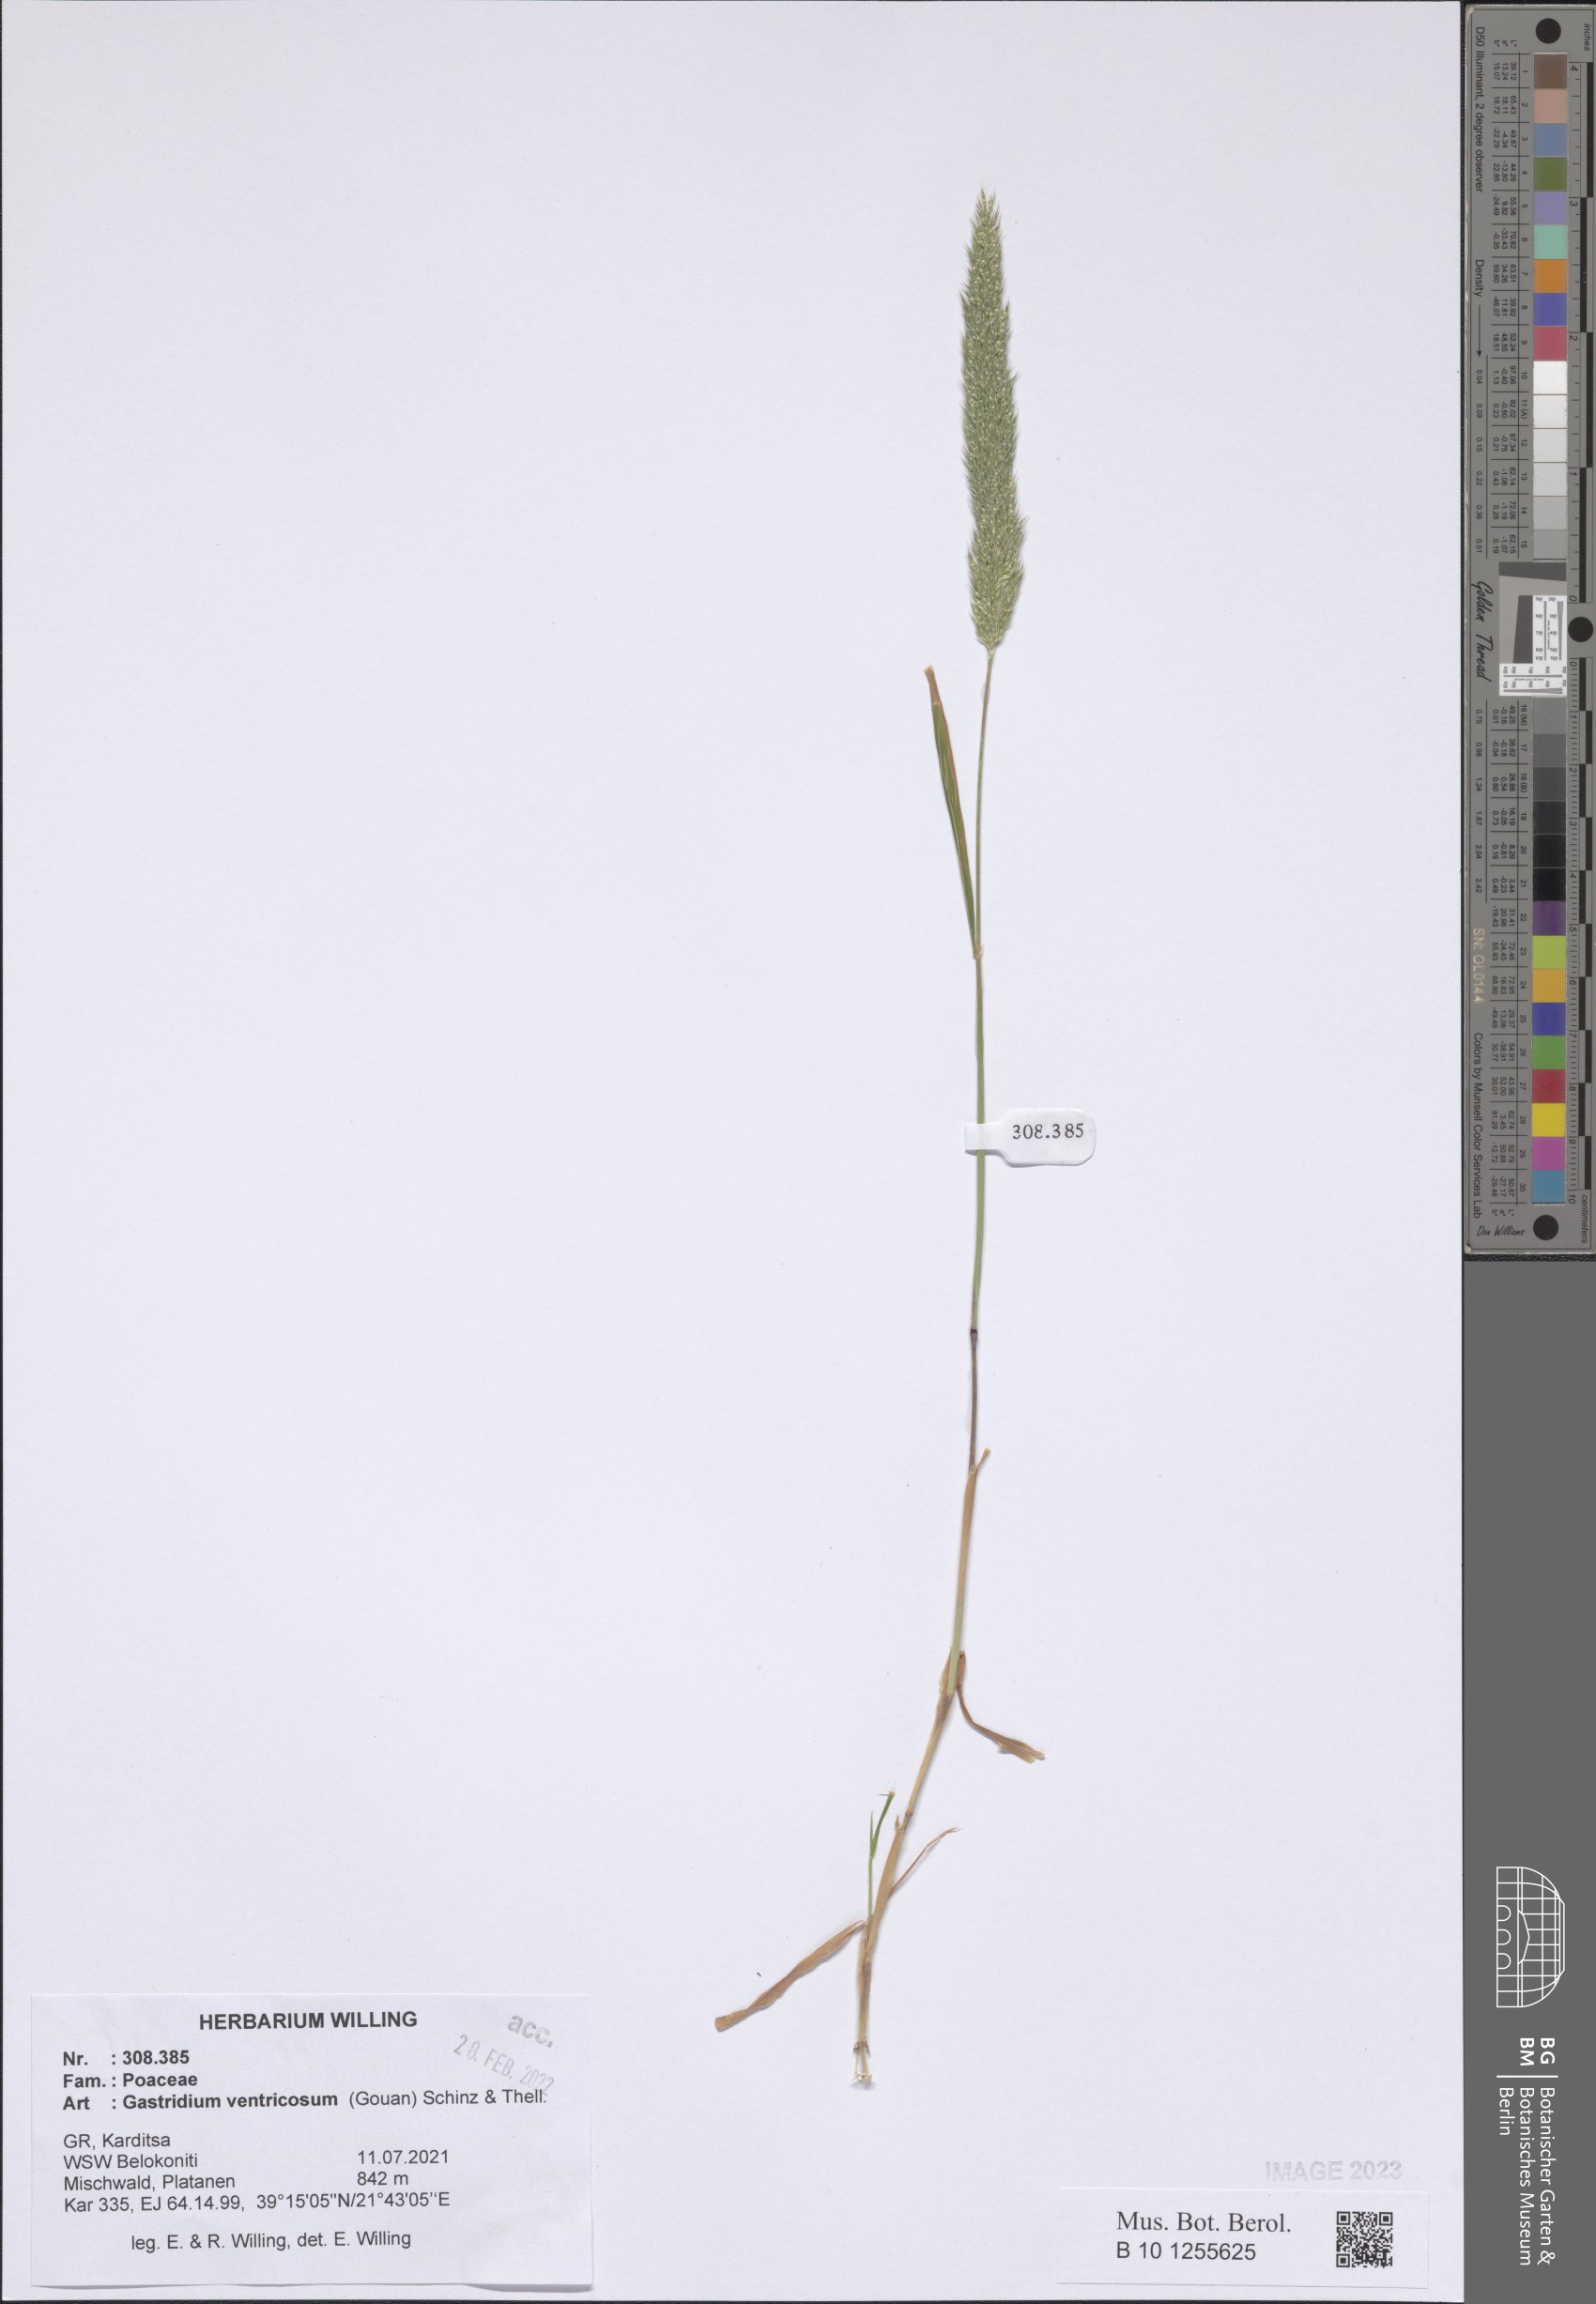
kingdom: Plantae
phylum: Tracheophyta
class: Liliopsida
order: Poales
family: Poaceae
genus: Gastridium
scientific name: Gastridium ventricosum
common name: Nit-grass
